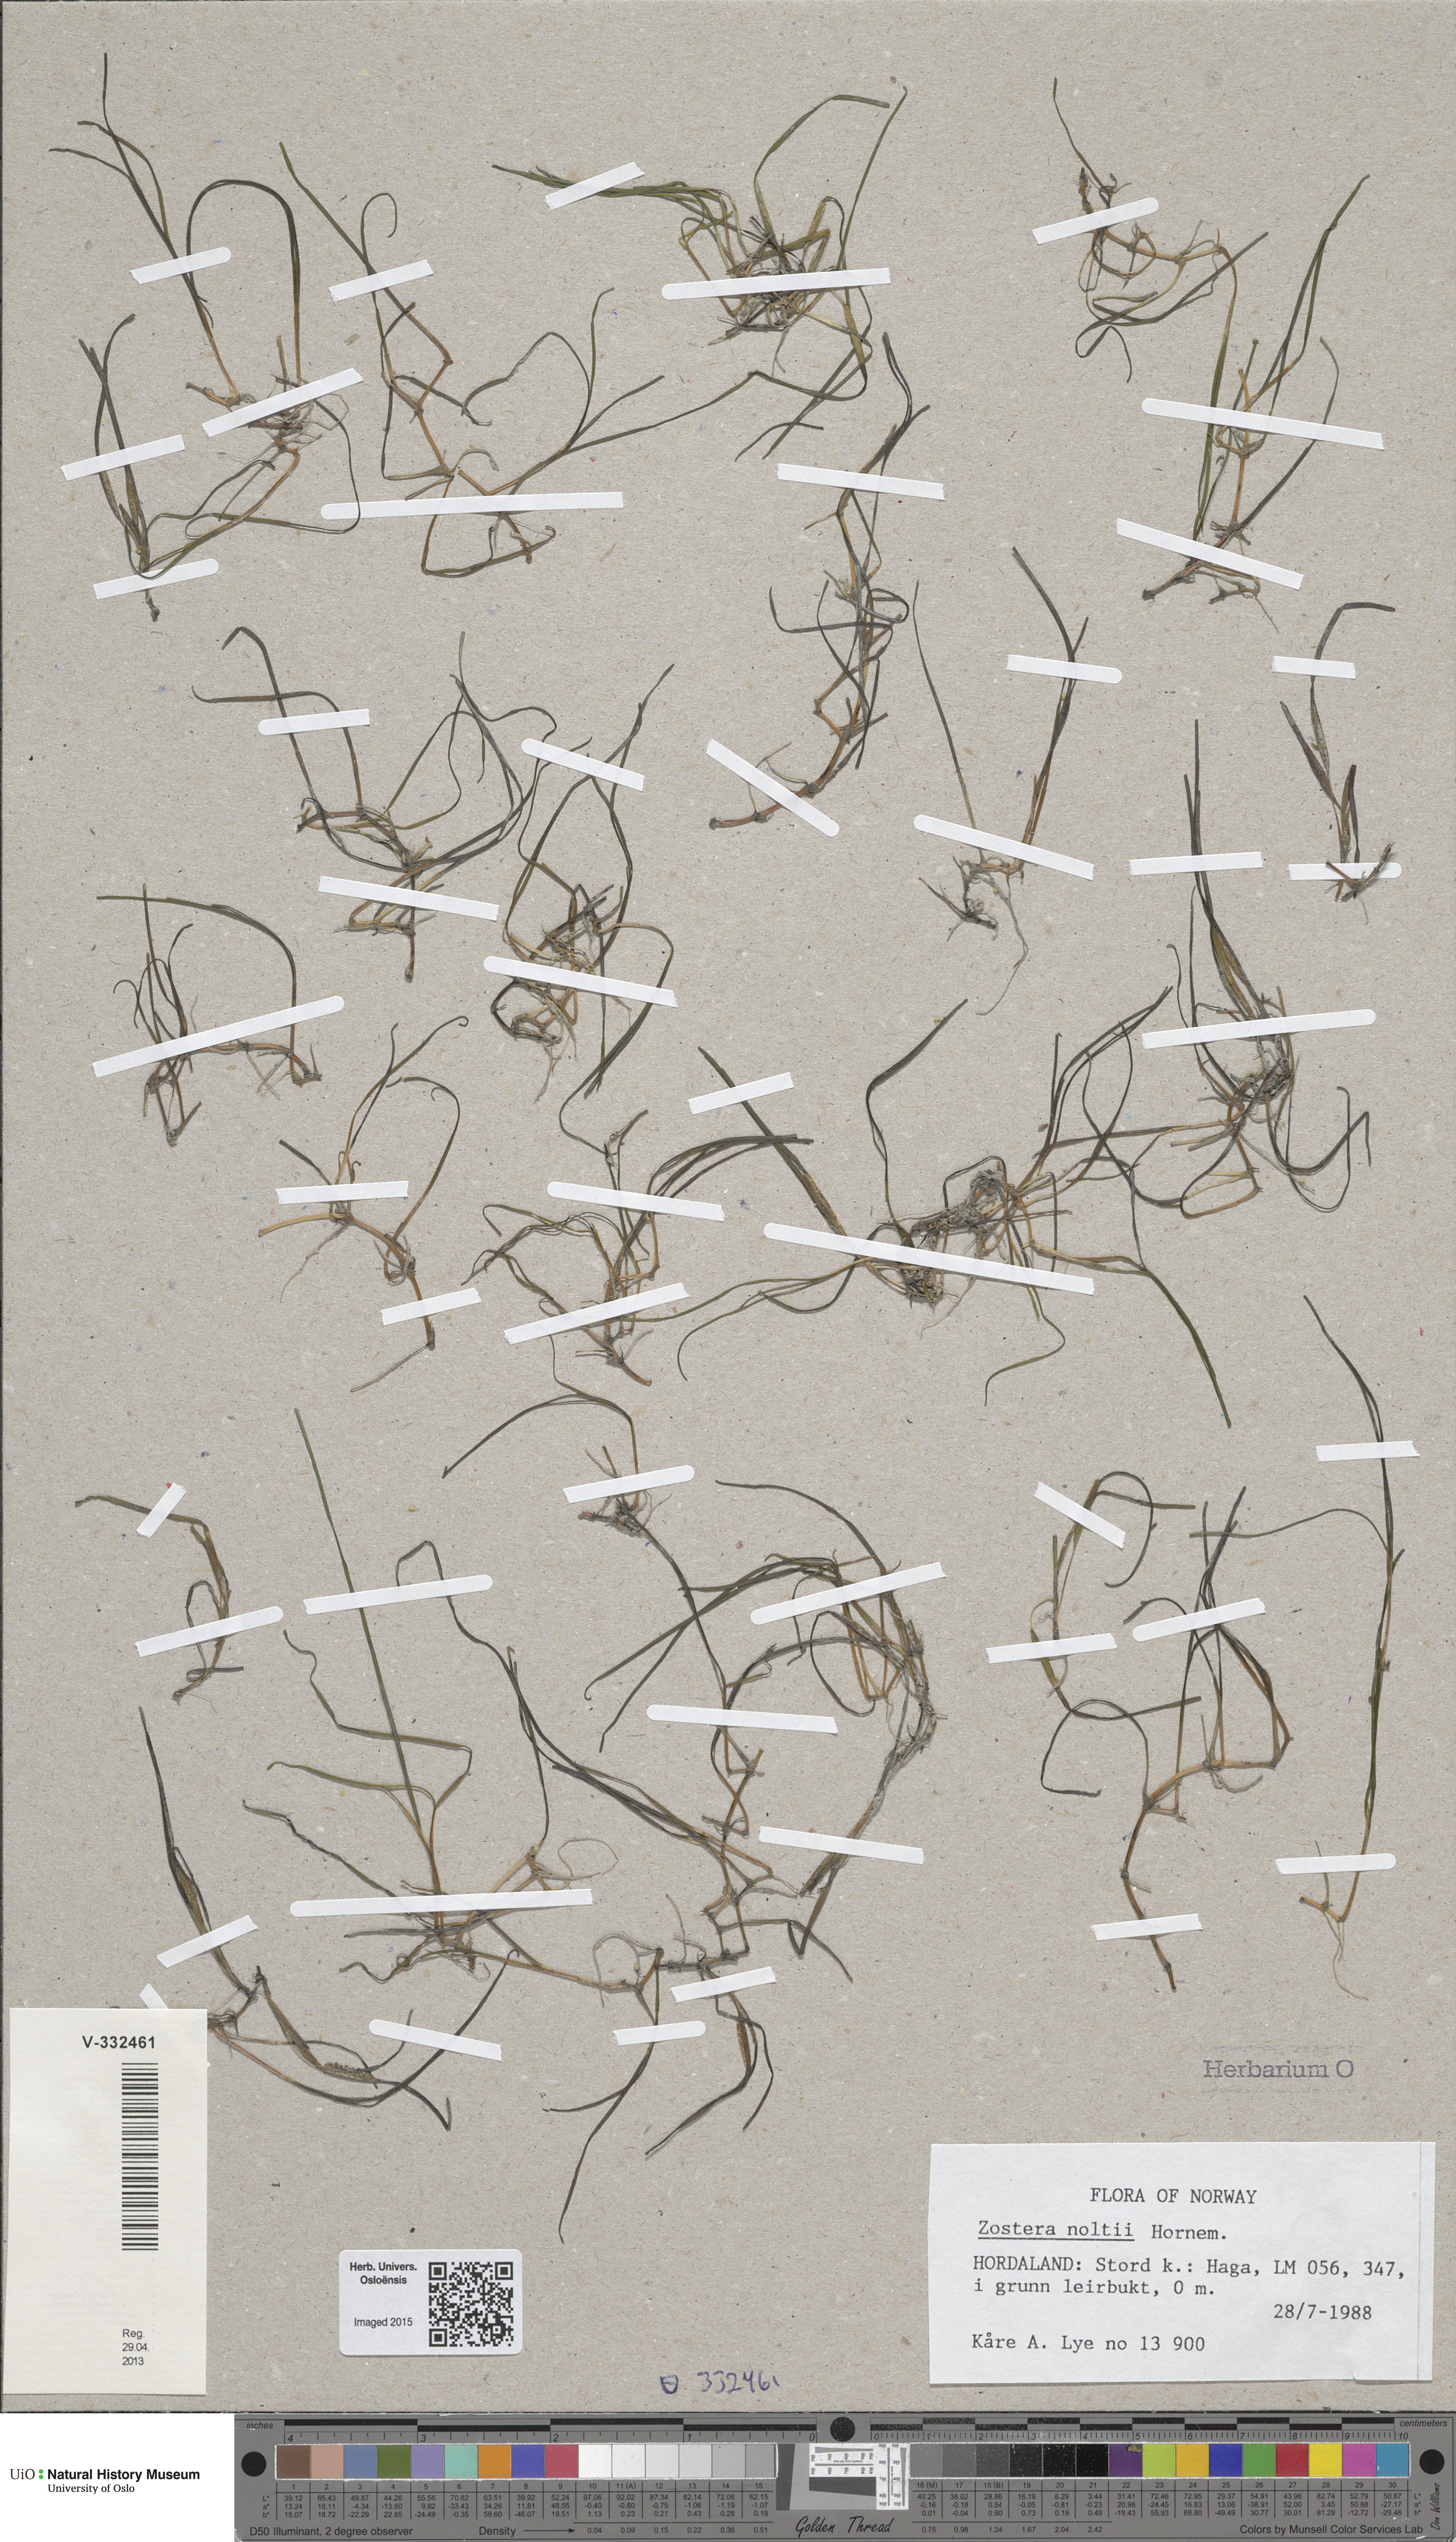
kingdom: Plantae
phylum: Tracheophyta
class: Liliopsida
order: Alismatales
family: Zosteraceae
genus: Zostera
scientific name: Zostera noltii
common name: Dwarf eelgrass
